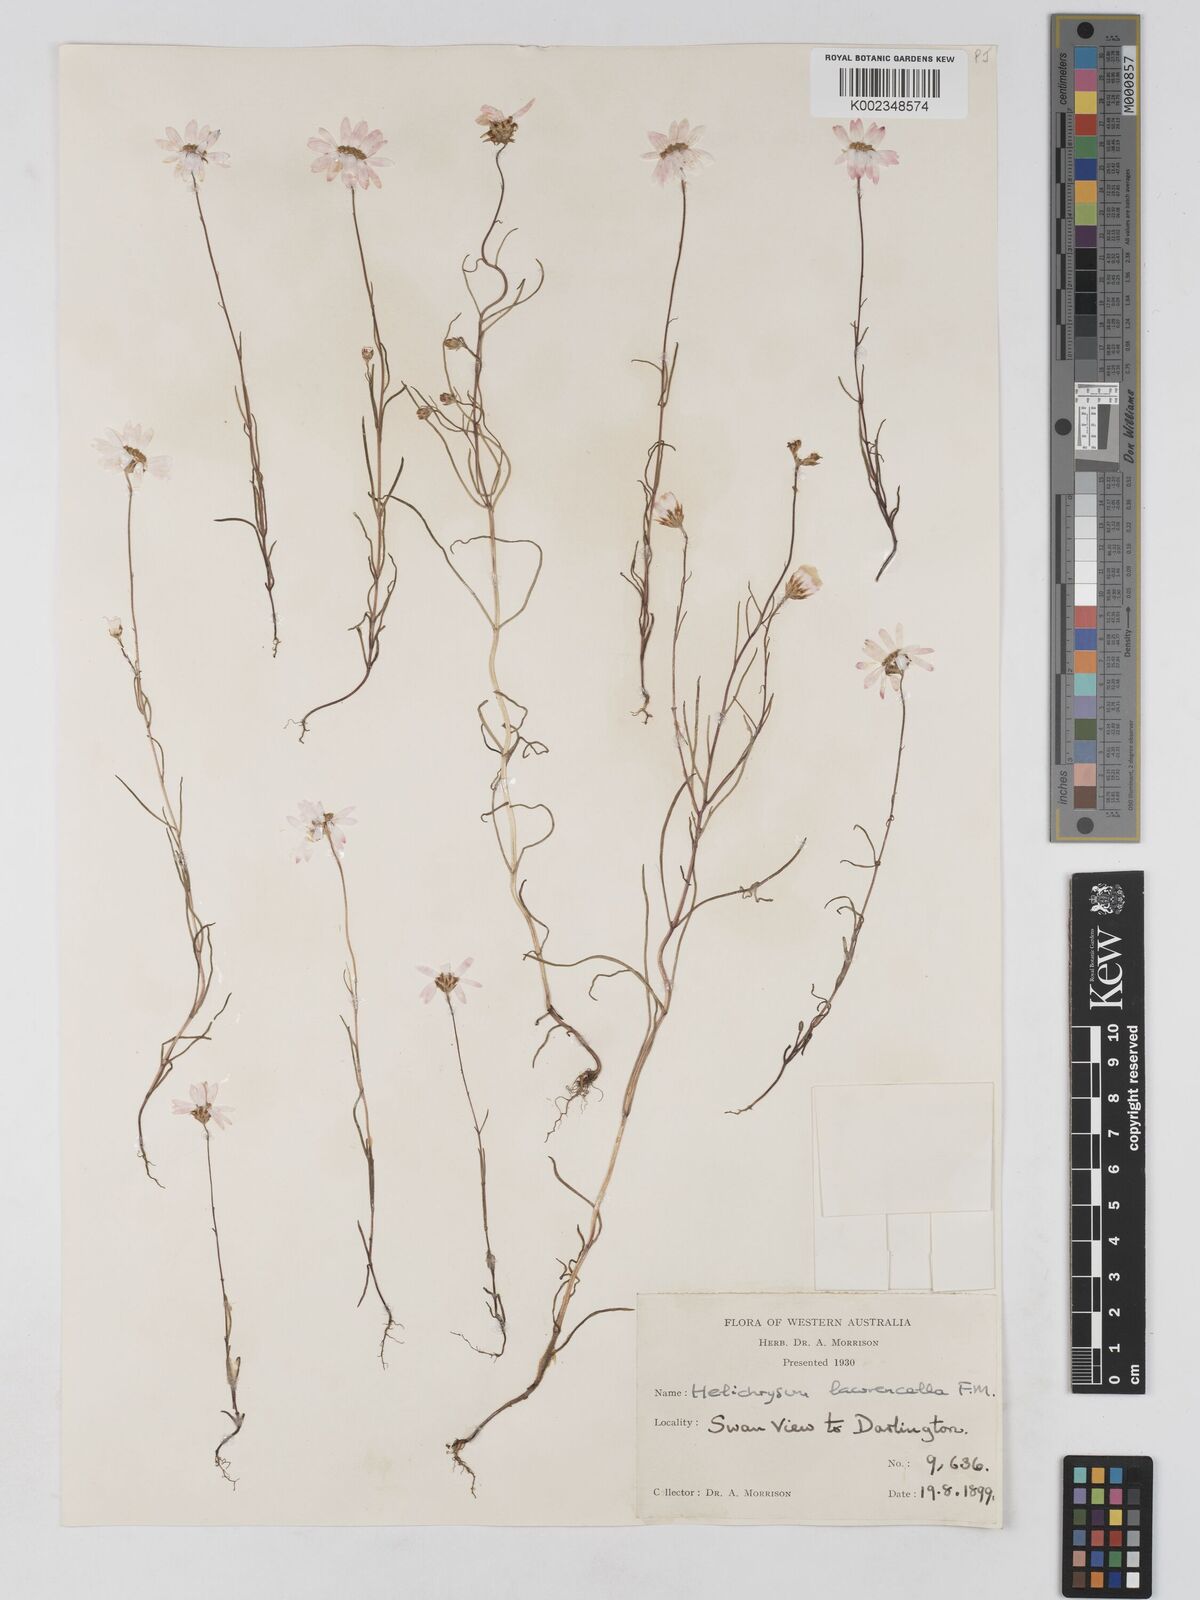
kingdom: Plantae
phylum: Tracheophyta
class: Magnoliopsida
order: Asterales
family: Asteraceae
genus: Lawrencella
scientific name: Lawrencella rosea
